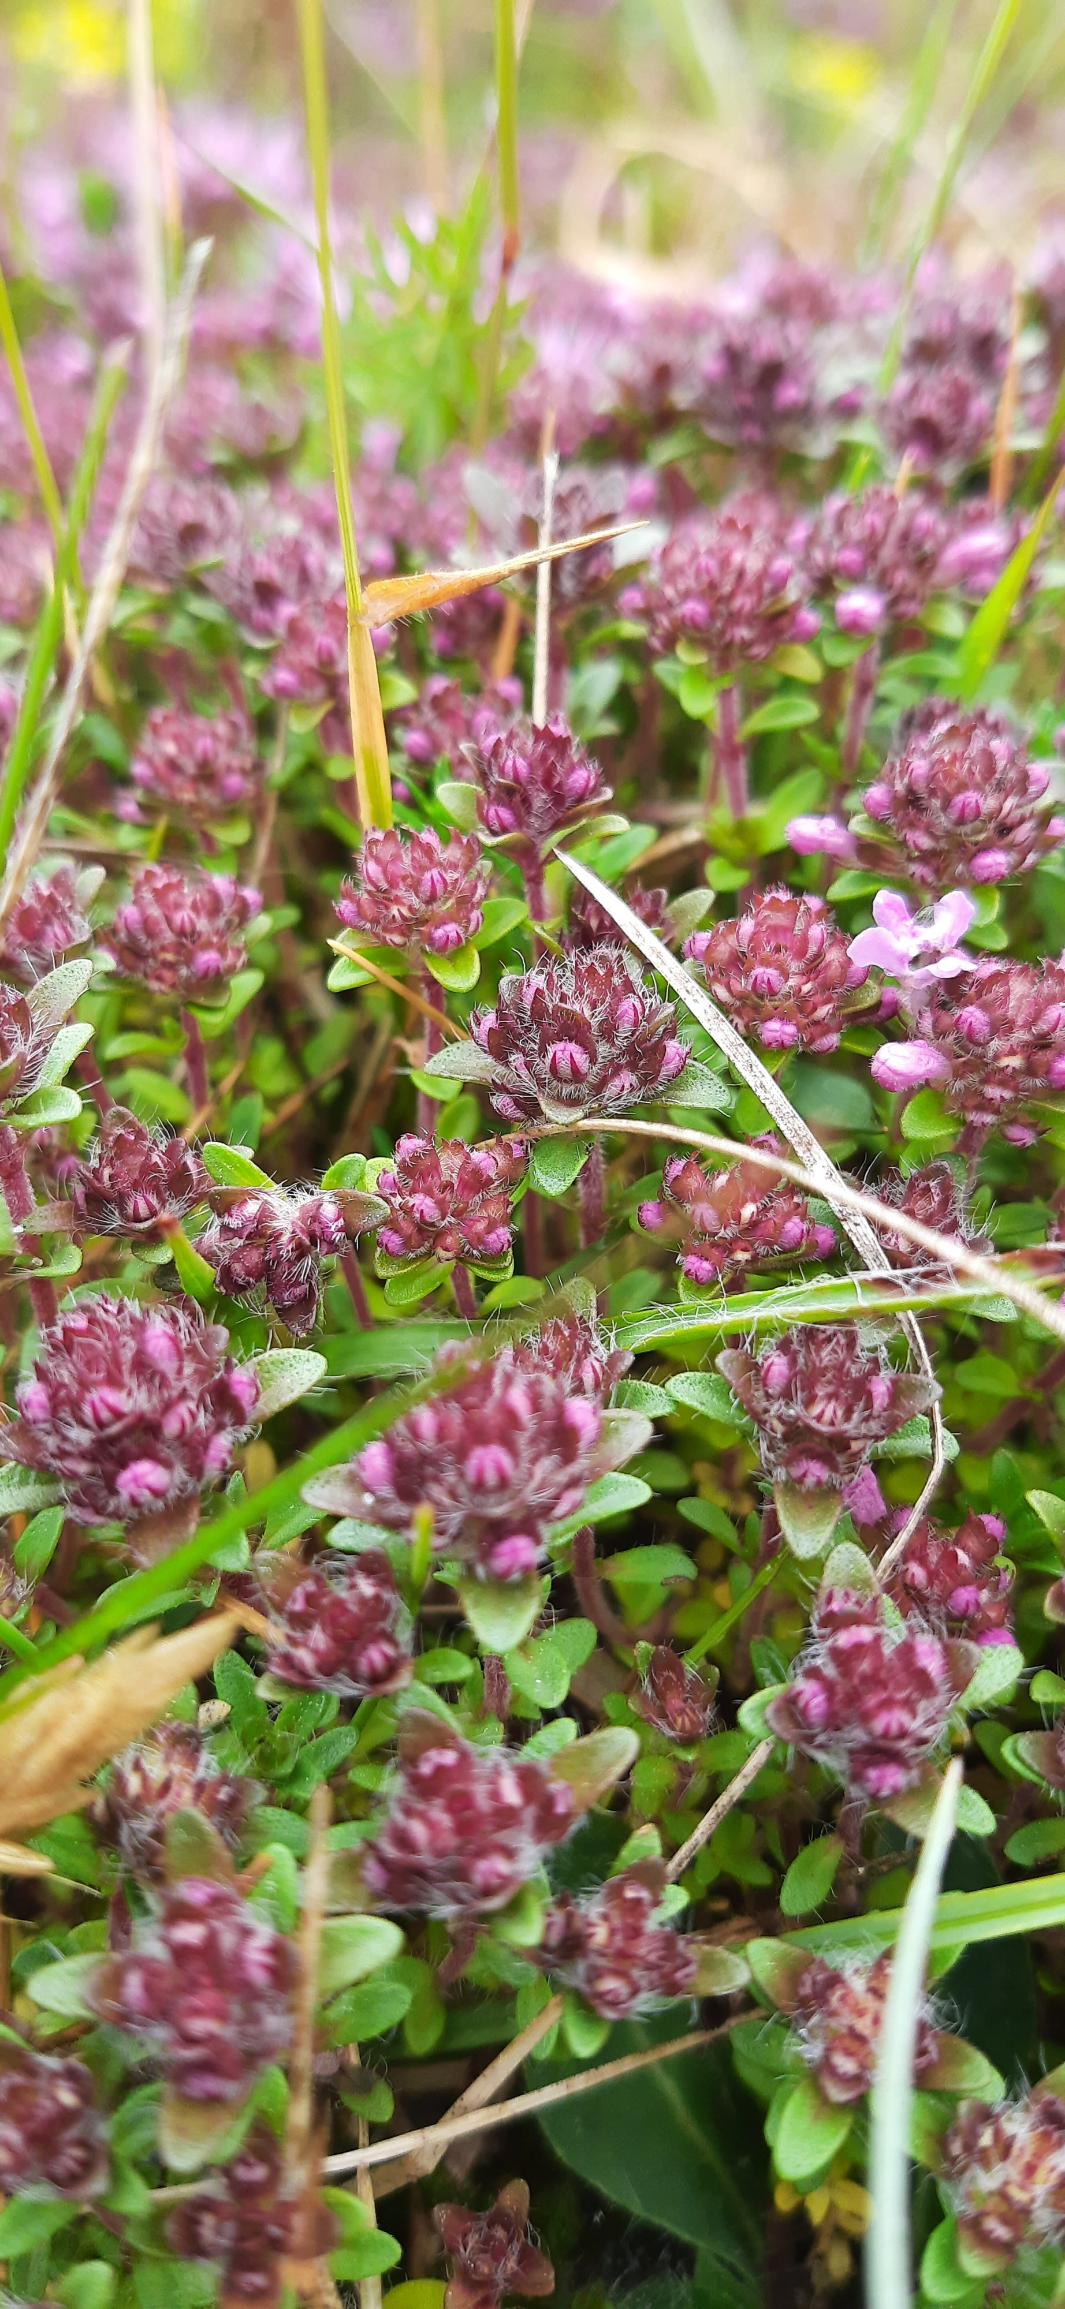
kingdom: Plantae
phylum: Tracheophyta
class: Magnoliopsida
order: Lamiales
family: Lamiaceae
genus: Thymus
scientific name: Thymus serpyllum
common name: Smalbladet timian
